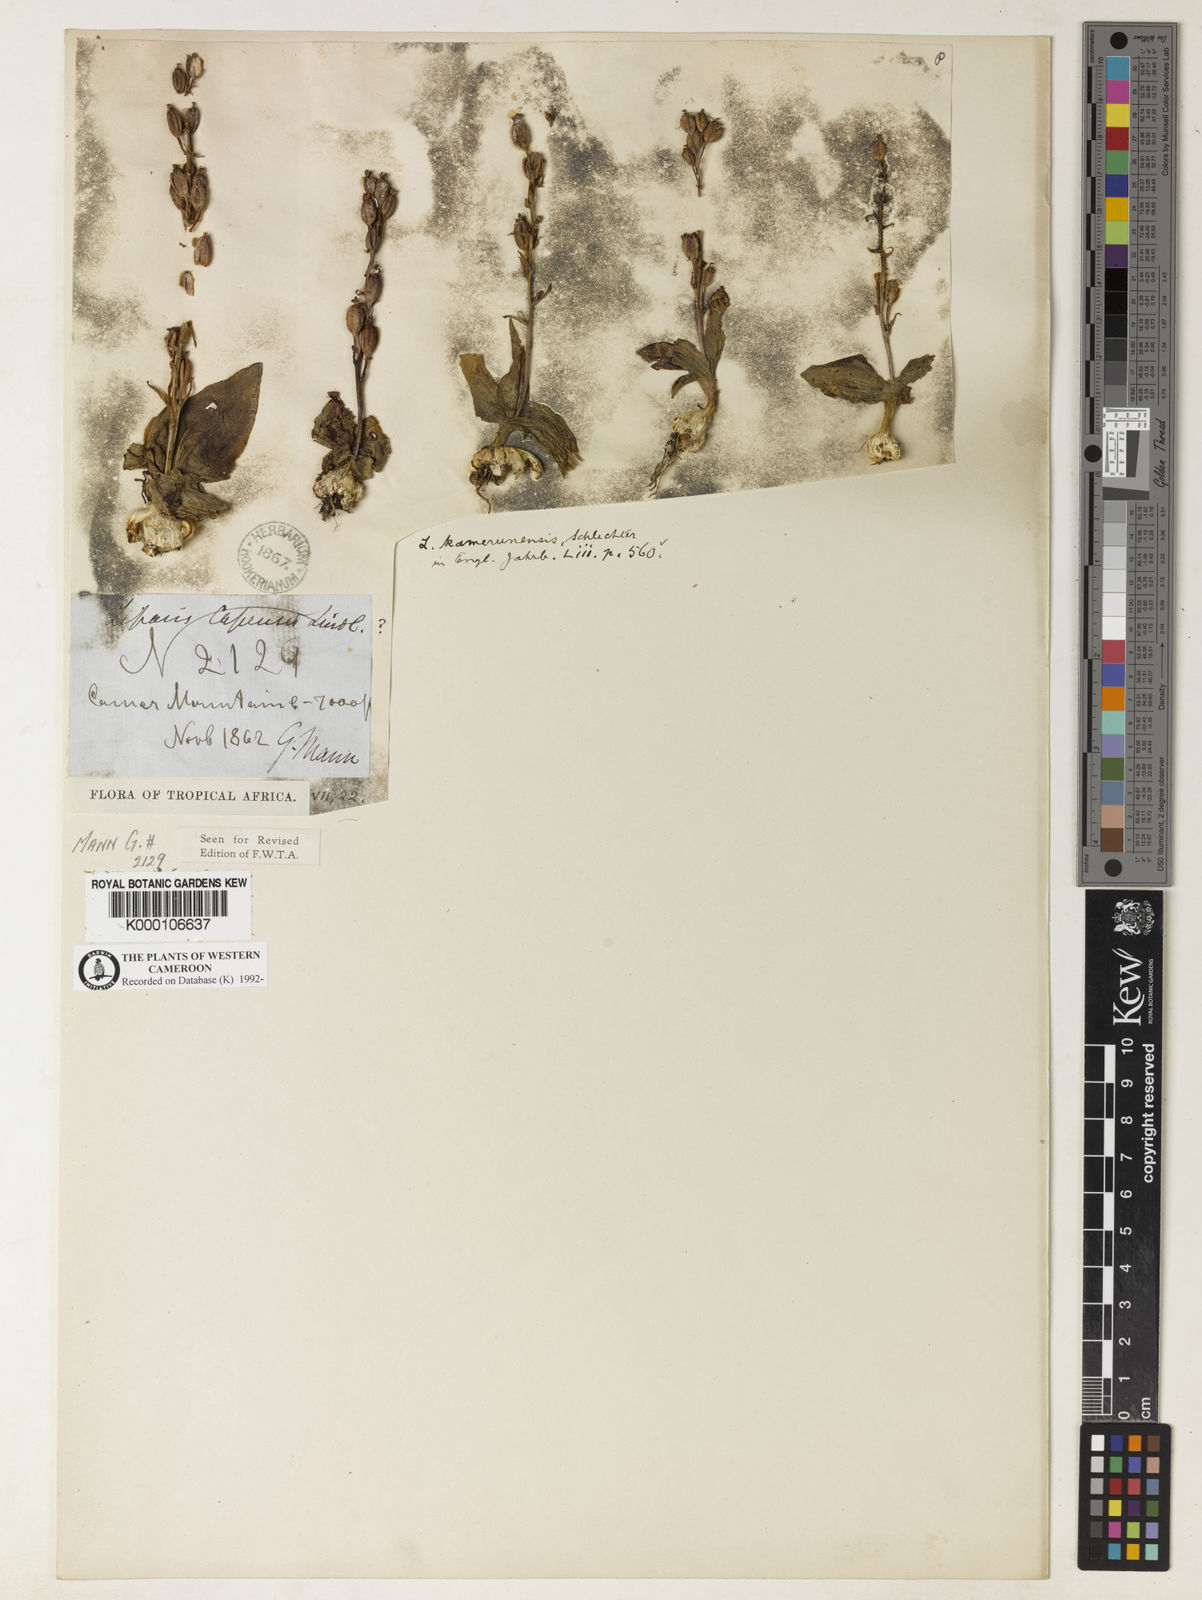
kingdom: Plantae
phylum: Tracheophyta
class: Liliopsida
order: Asparagales
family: Orchidaceae
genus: Liparis
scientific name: Liparis kamerunensis
